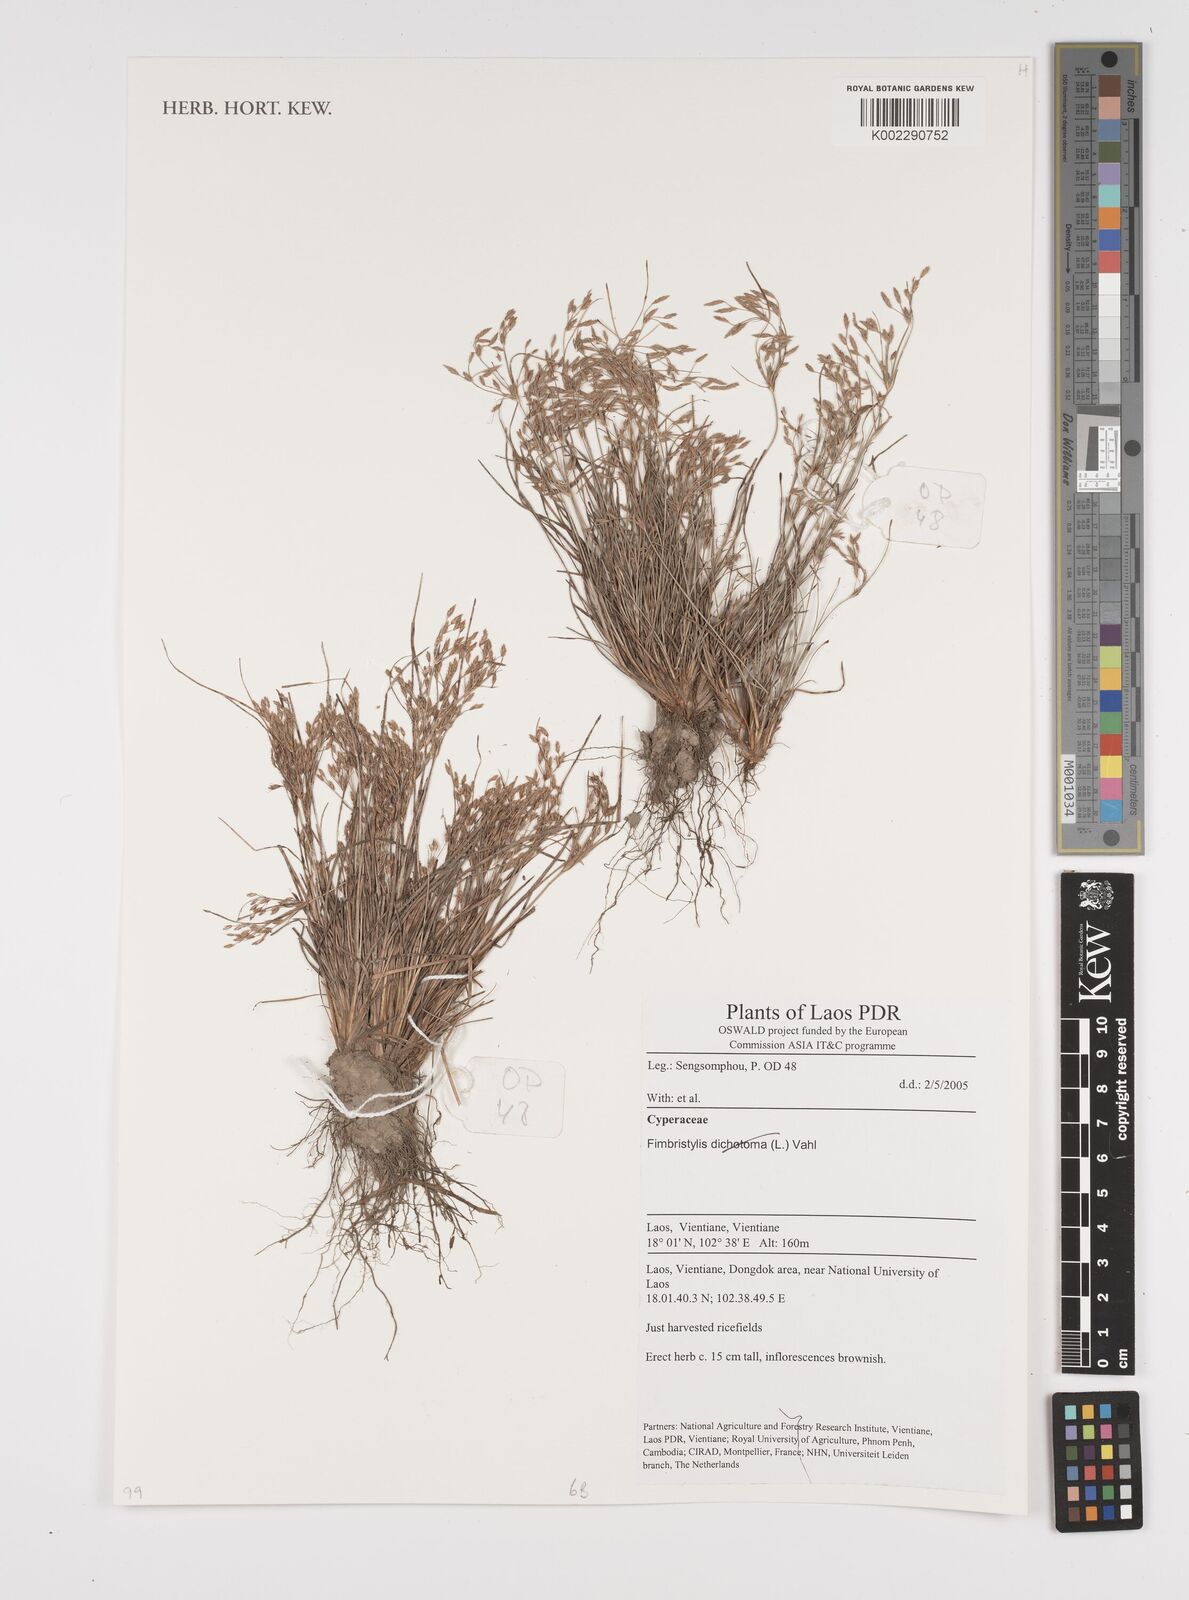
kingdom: Plantae
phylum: Tracheophyta
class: Liliopsida
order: Poales
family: Cyperaceae
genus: Fimbristylis
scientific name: Fimbristylis
